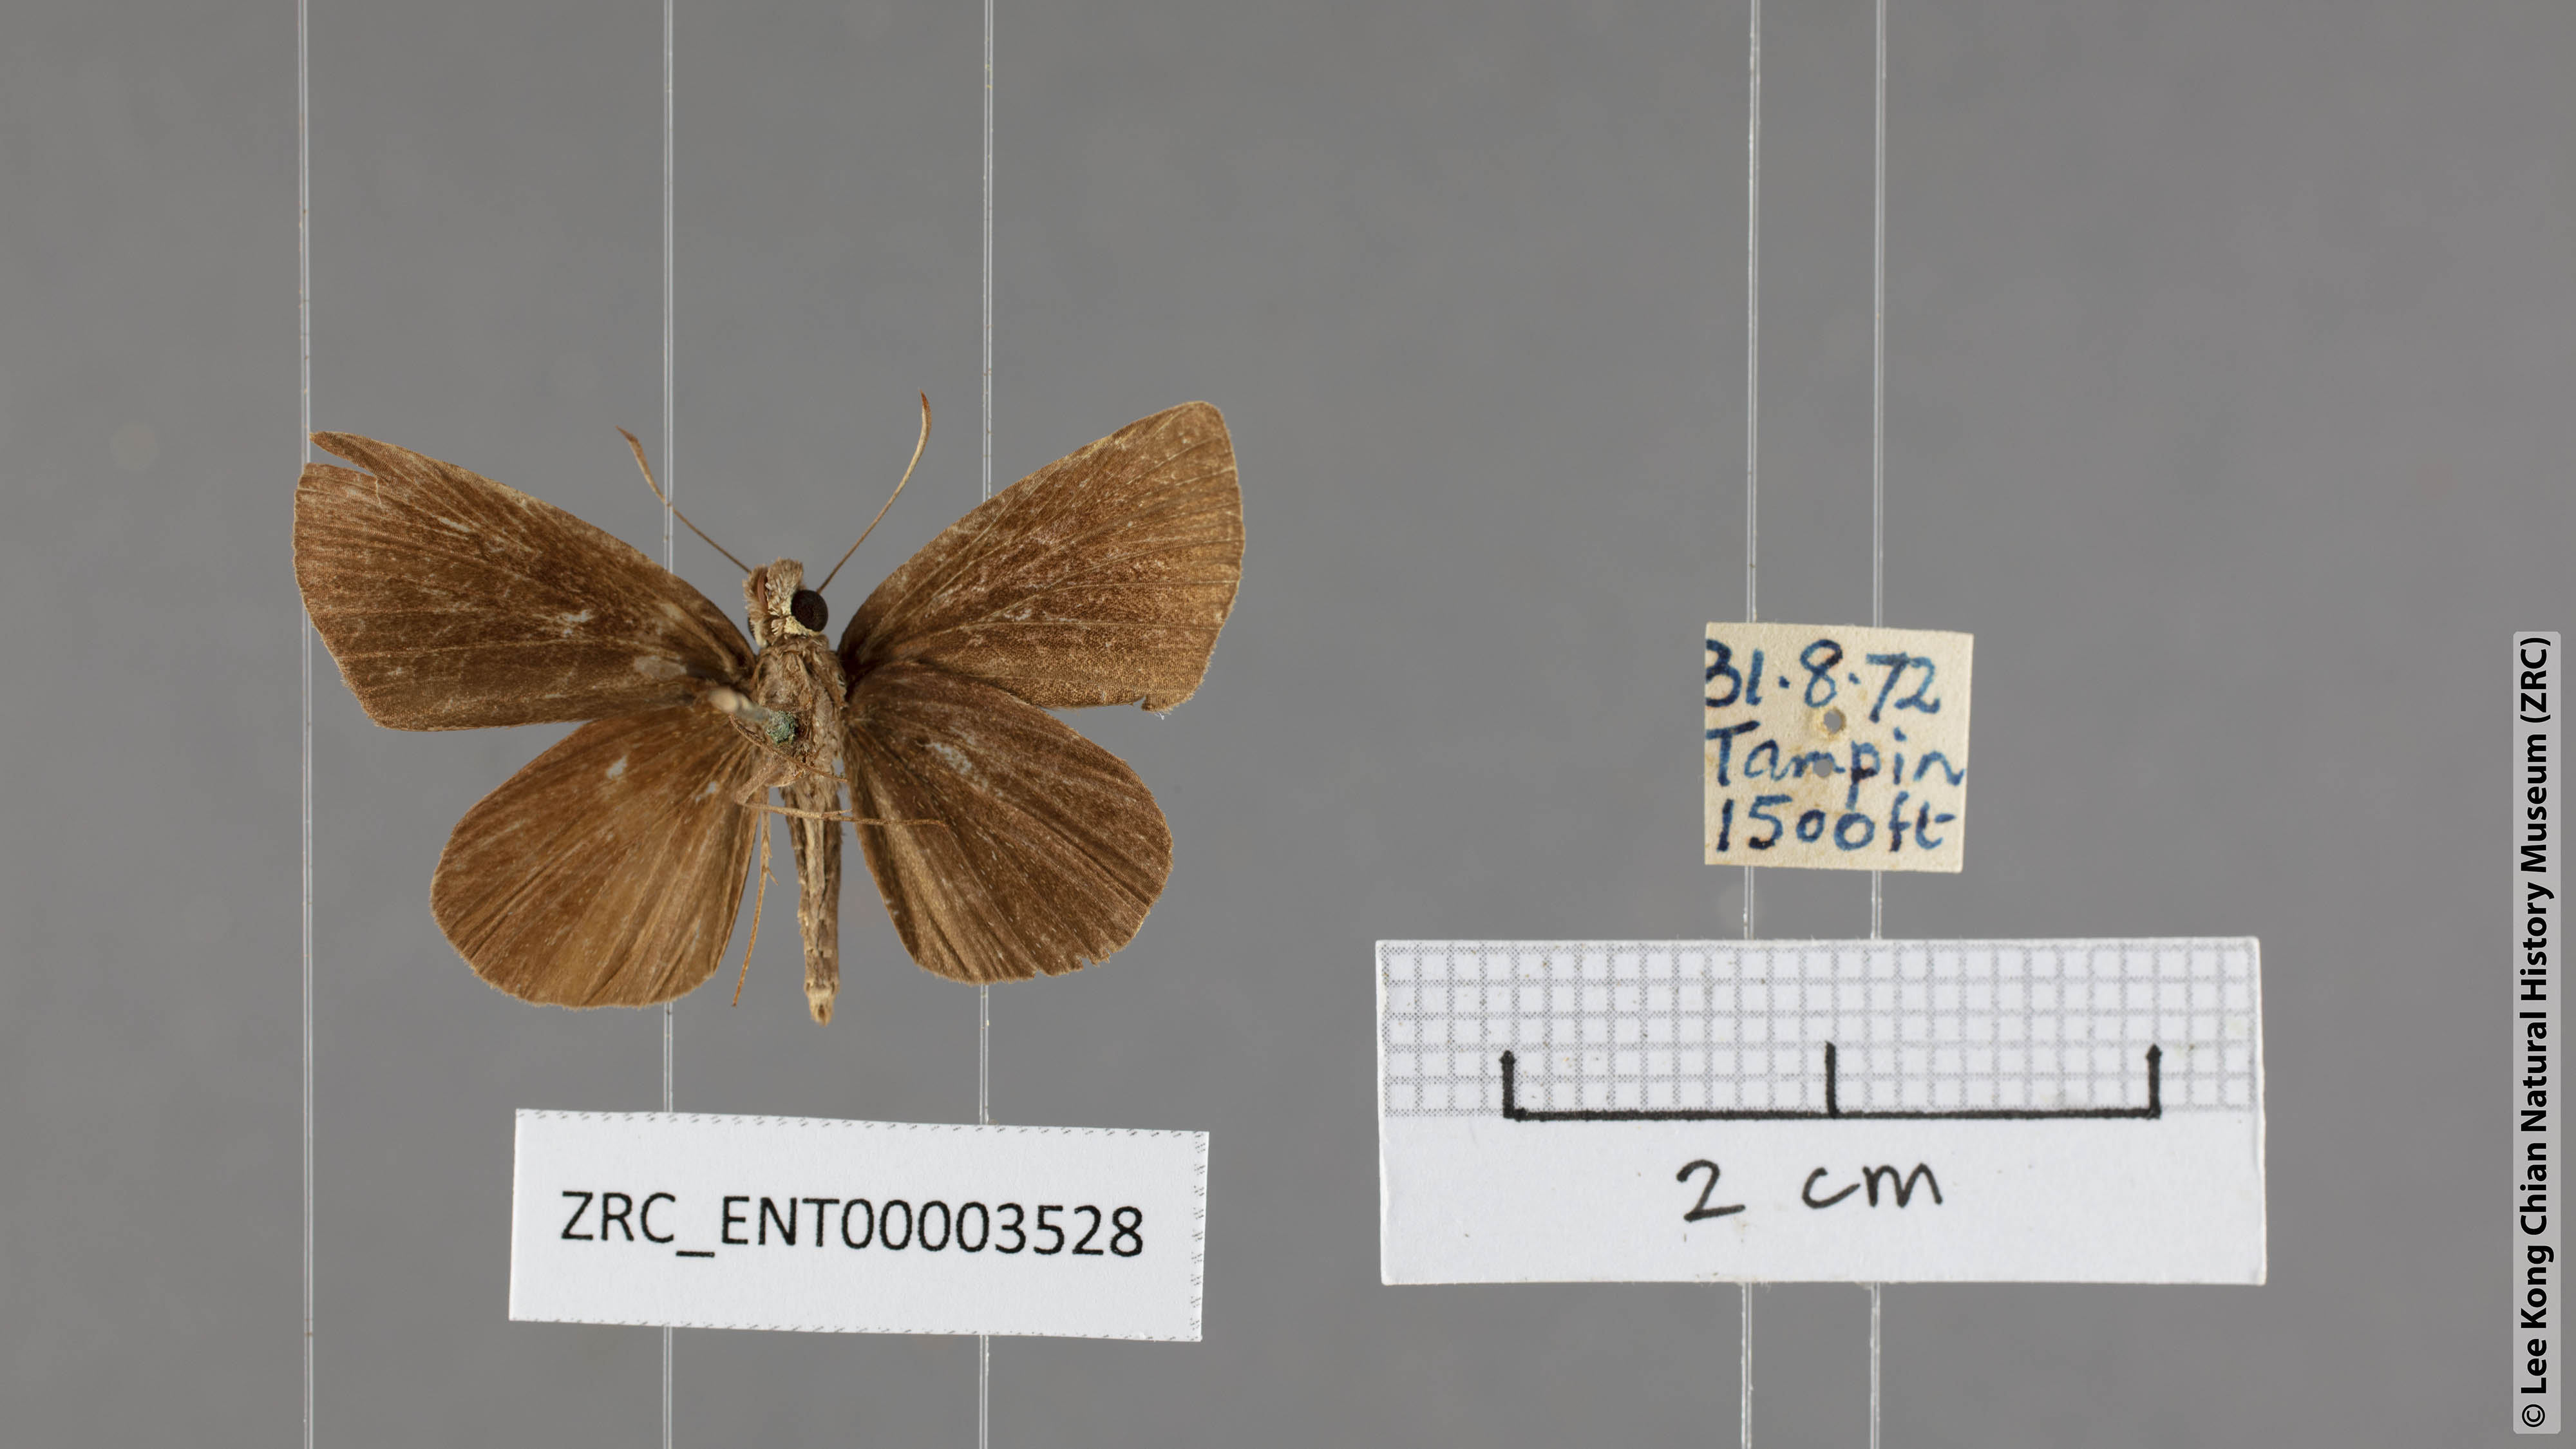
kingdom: Animalia
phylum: Arthropoda
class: Insecta
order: Lepidoptera
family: Hesperiidae
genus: Quedara
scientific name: Quedara monteithi
